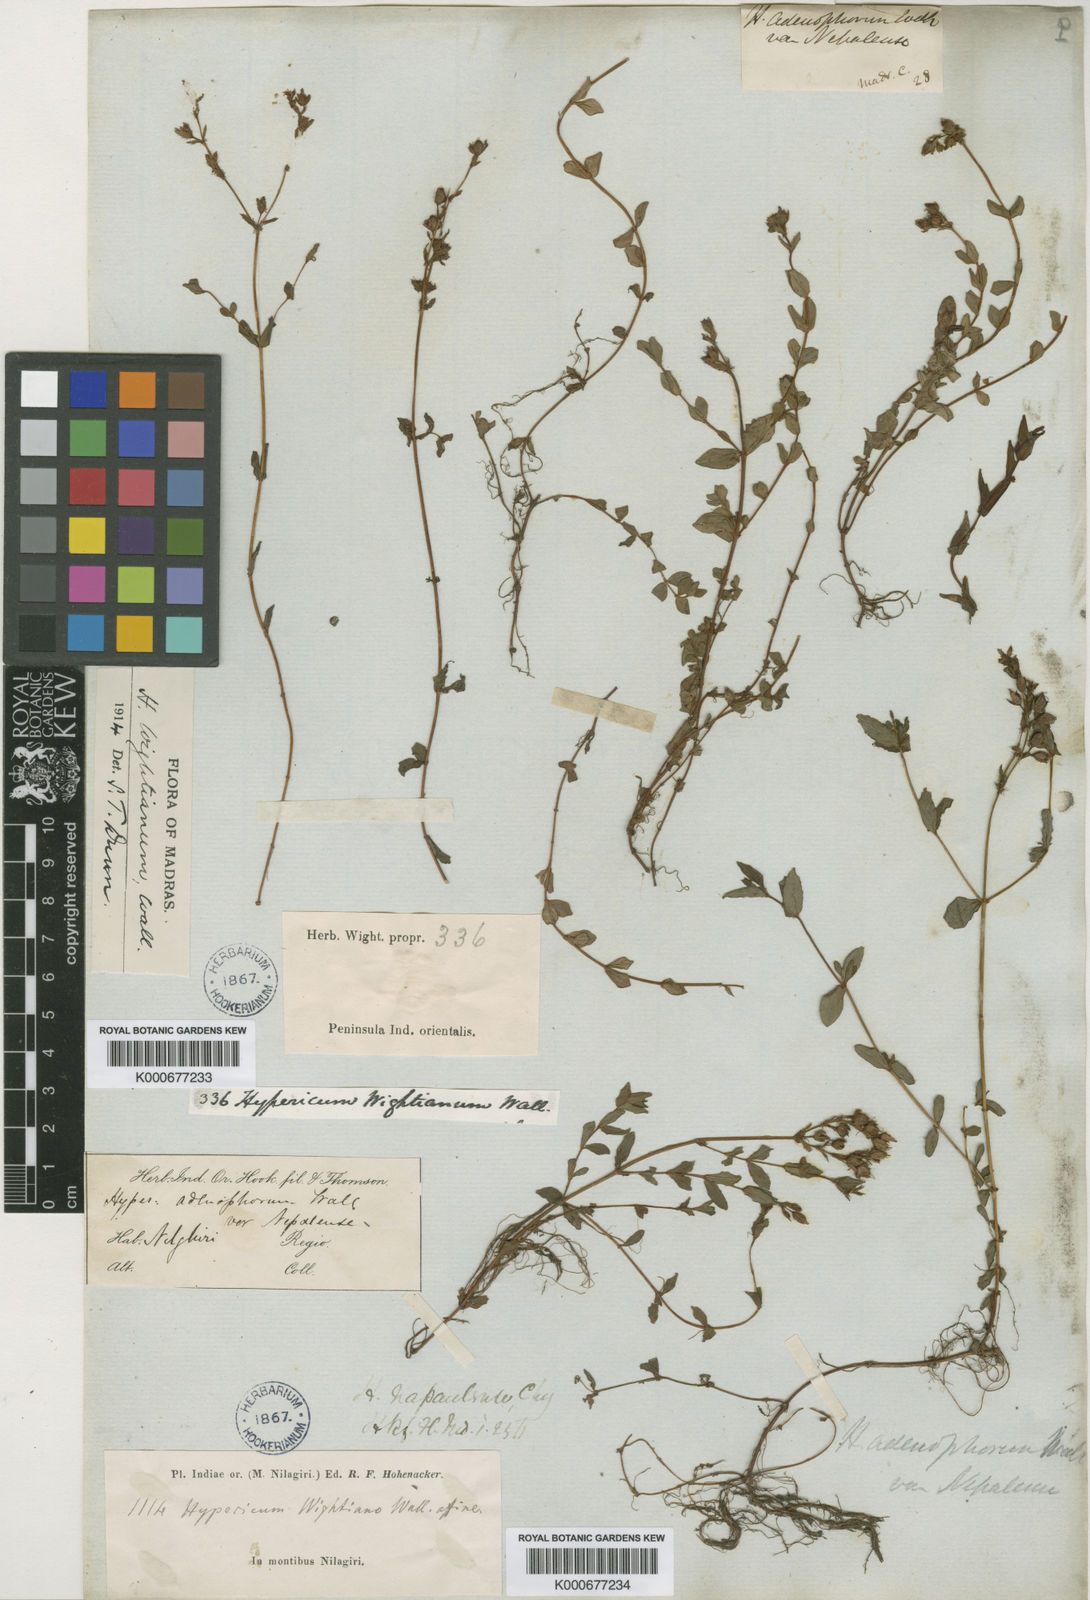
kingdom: Plantae
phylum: Tracheophyta
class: Magnoliopsida
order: Malpighiales
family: Hypericaceae
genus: Hypericum
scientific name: Hypericum
